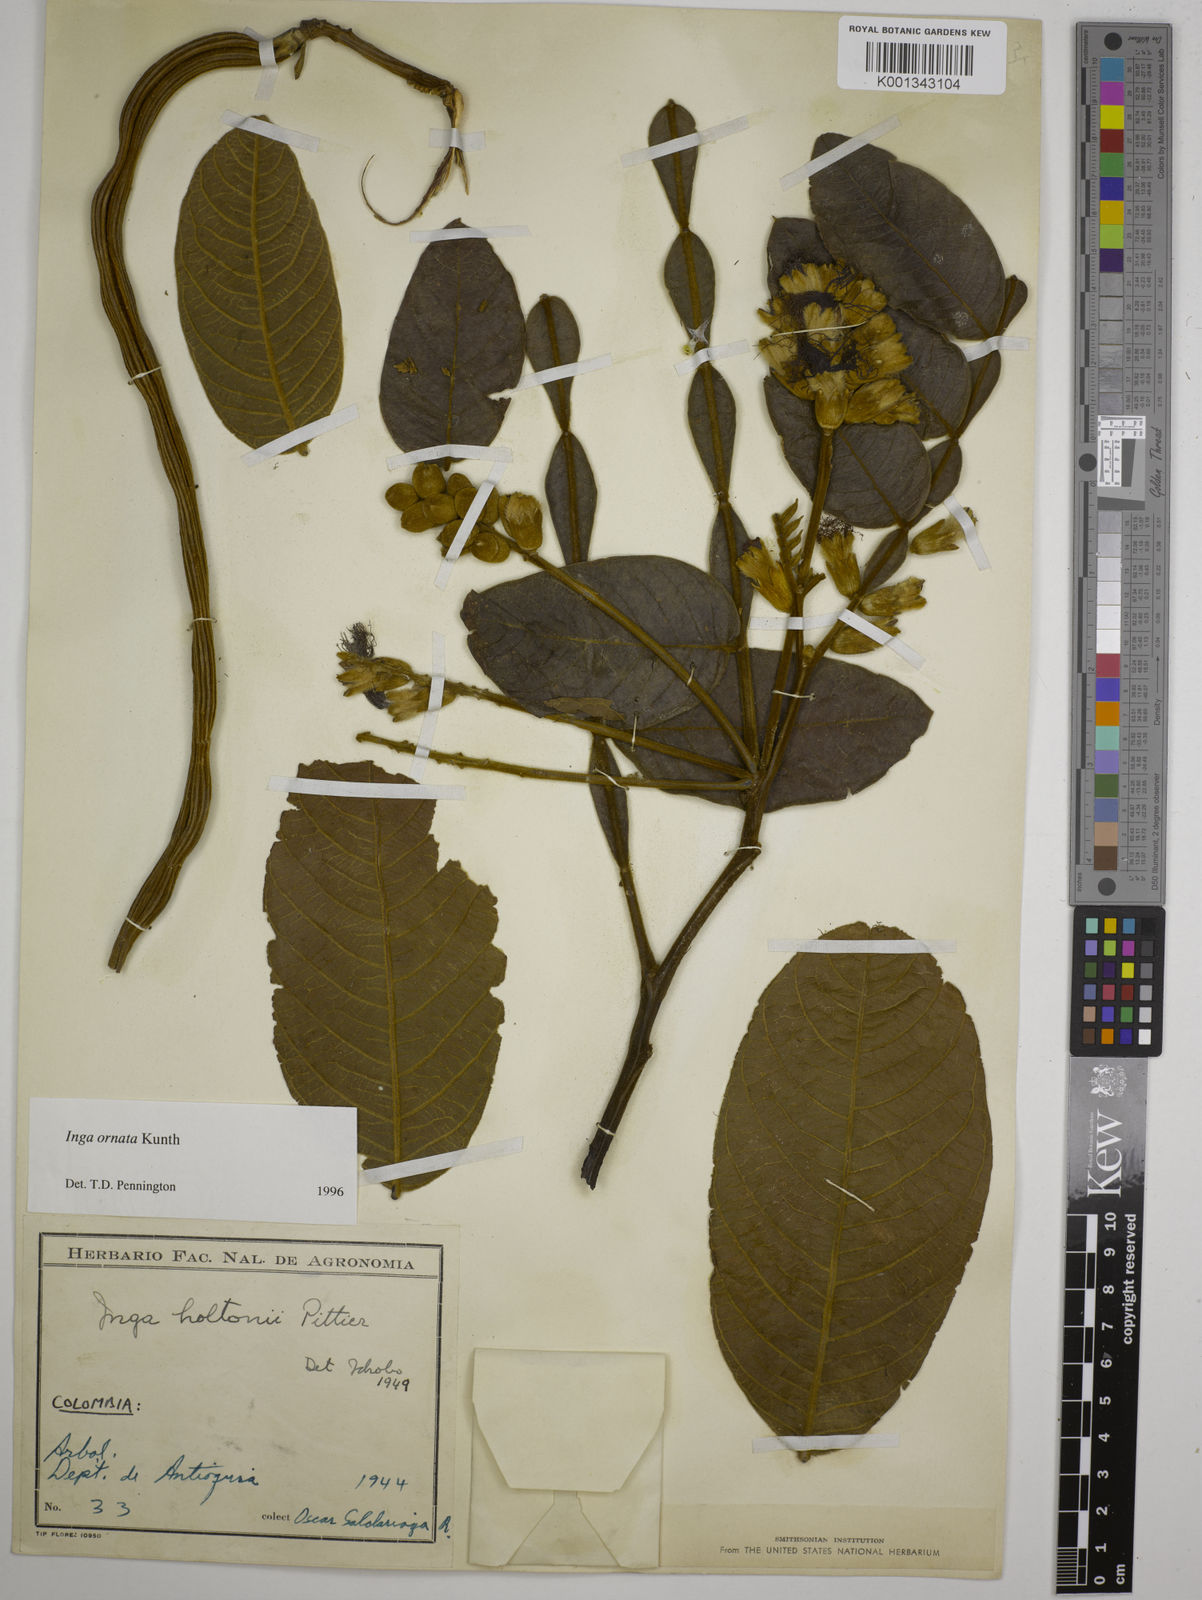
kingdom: Plantae
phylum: Tracheophyta
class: Magnoliopsida
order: Fabales
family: Fabaceae
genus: Inga
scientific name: Inga ornata
